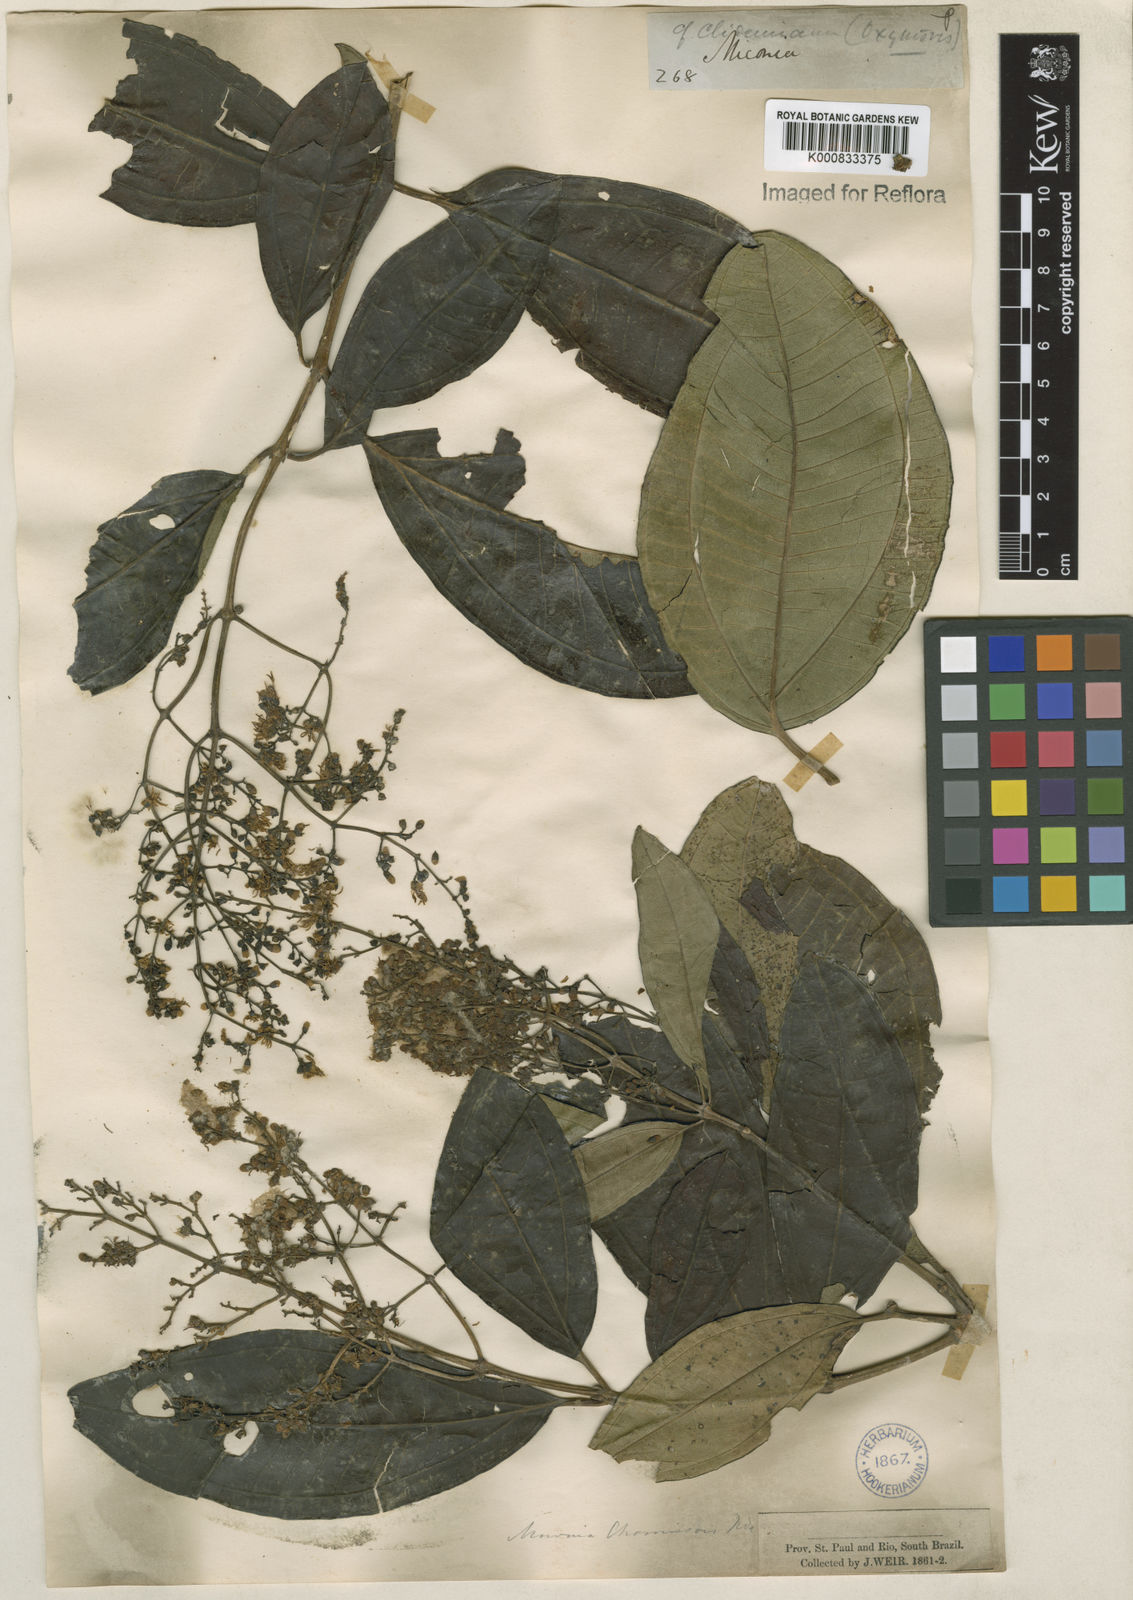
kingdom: Plantae
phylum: Tracheophyta
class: Magnoliopsida
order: Myrtales
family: Melastomataceae
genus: Miconia
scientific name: Miconia chamissois
